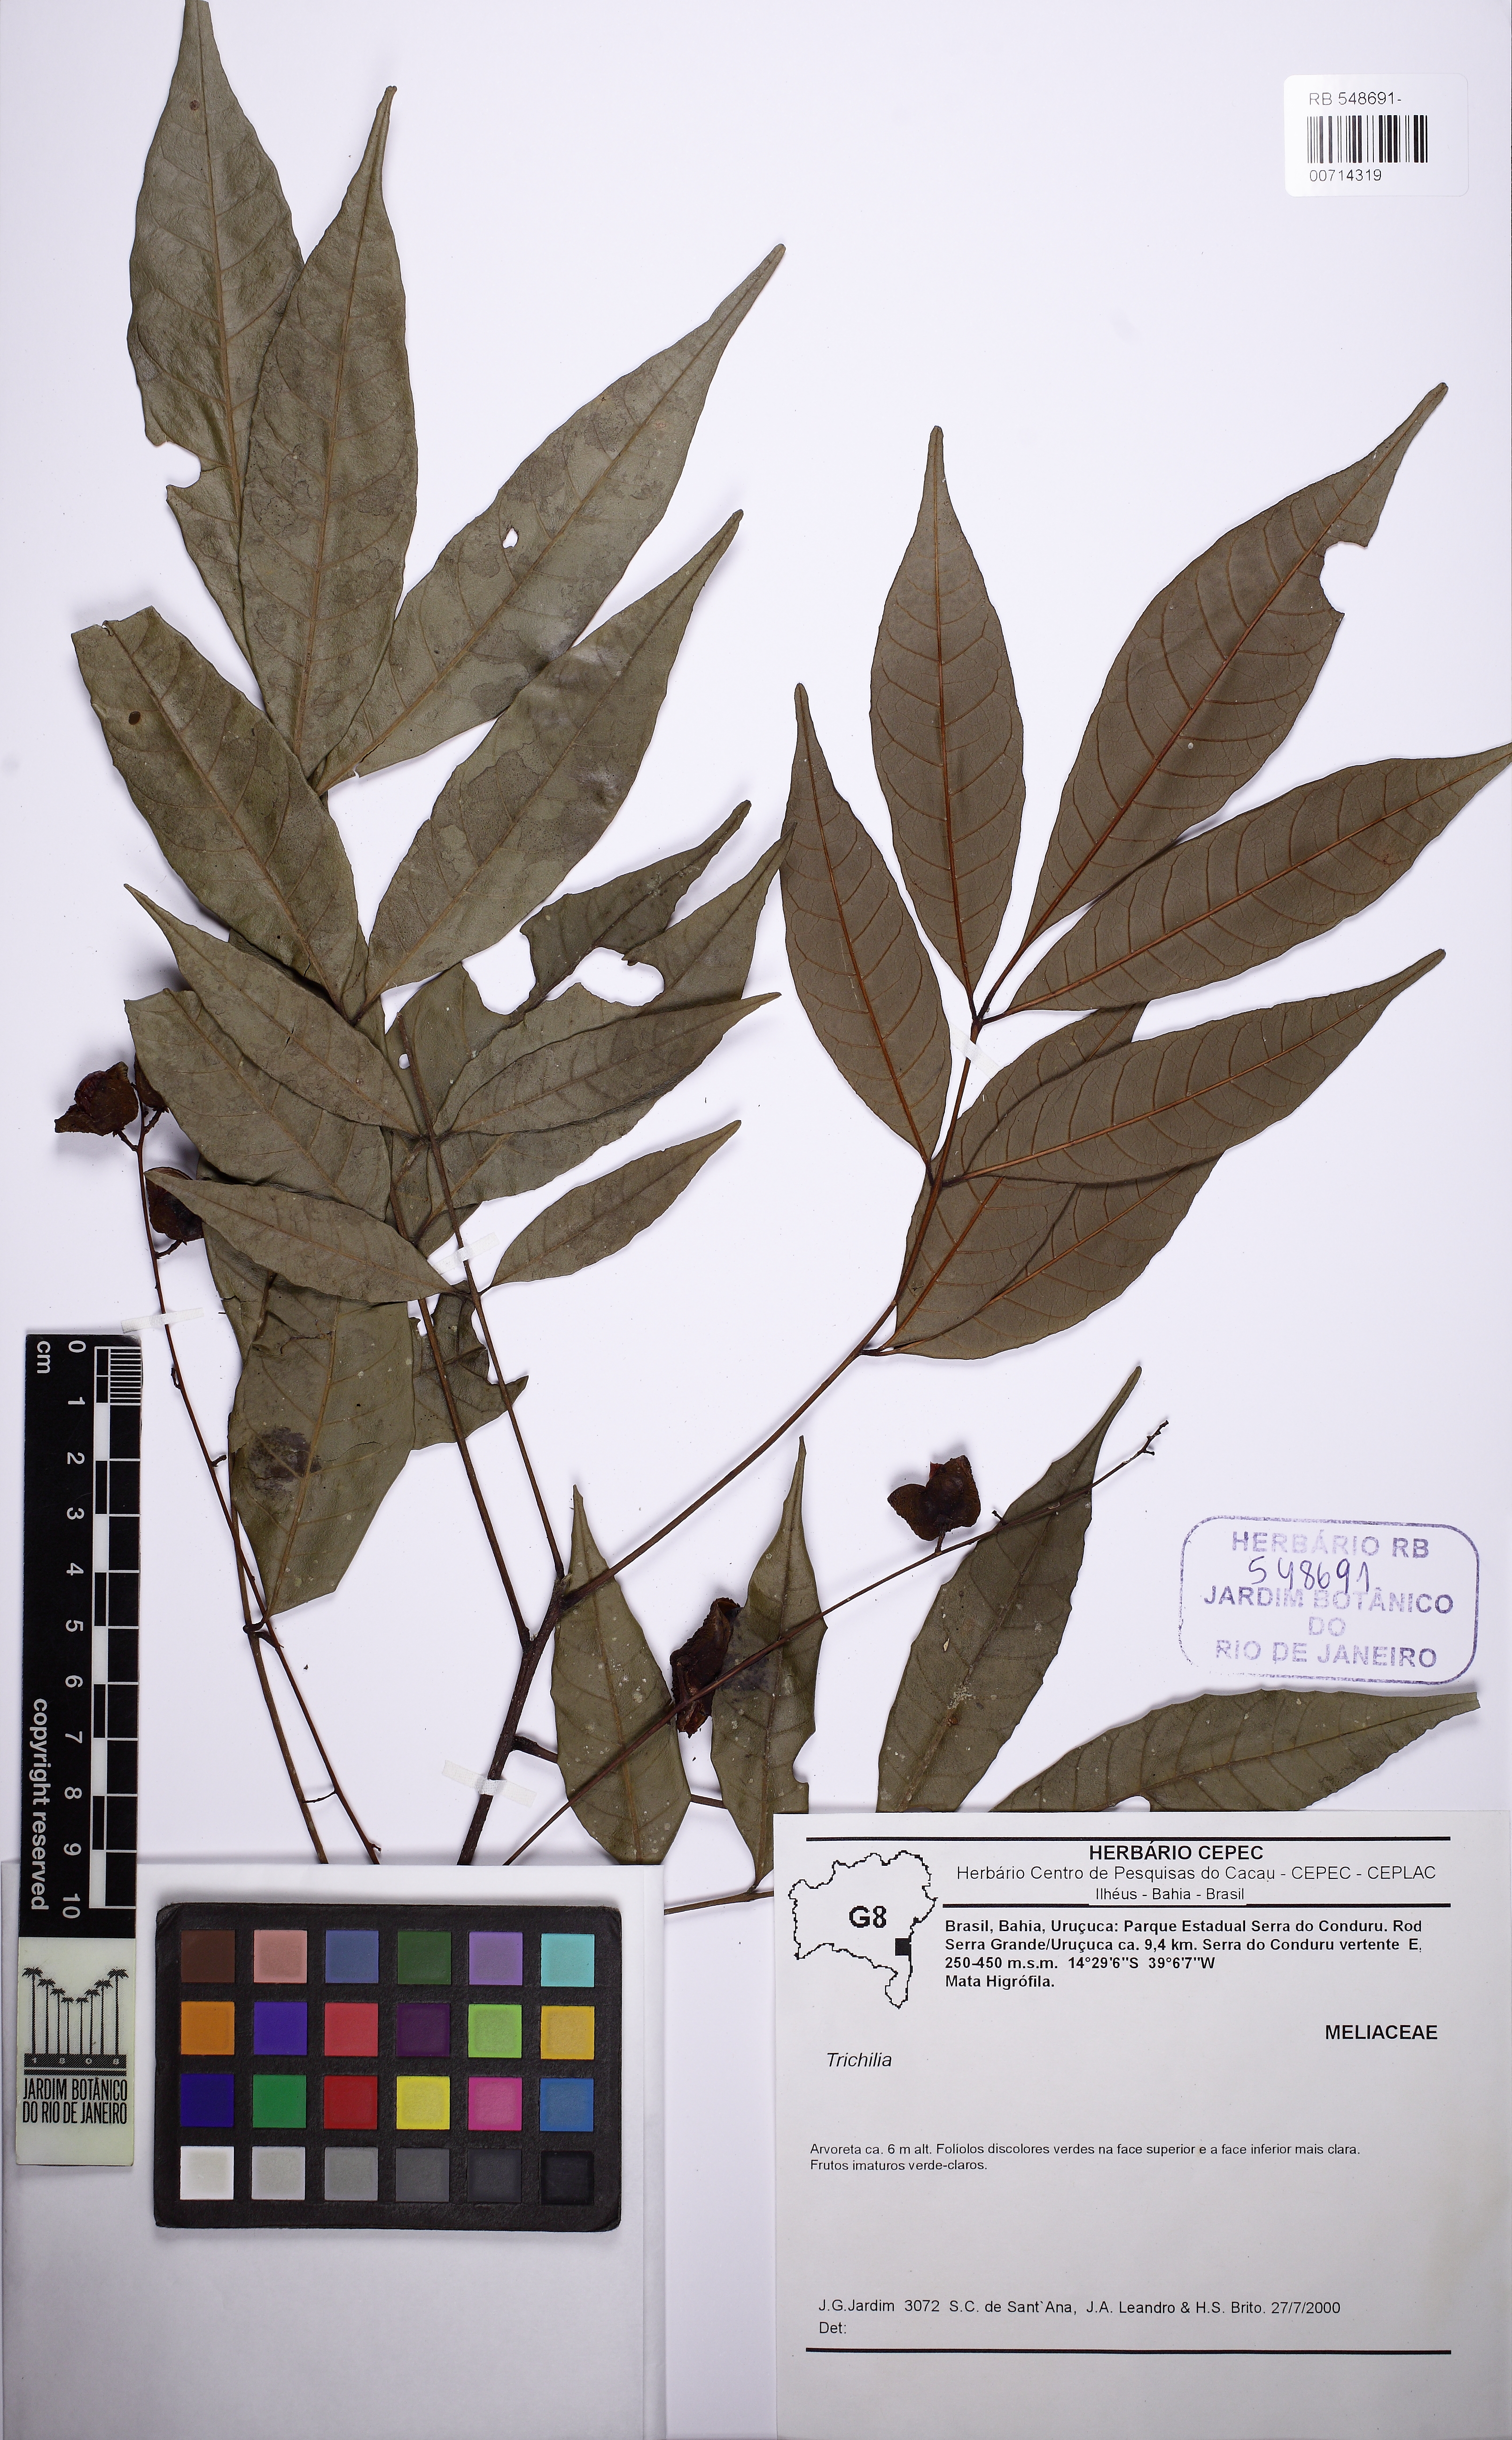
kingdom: Plantae
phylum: Tracheophyta
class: Magnoliopsida
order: Sapindales
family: Meliaceae
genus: Trichilia
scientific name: Trichilia pallens
